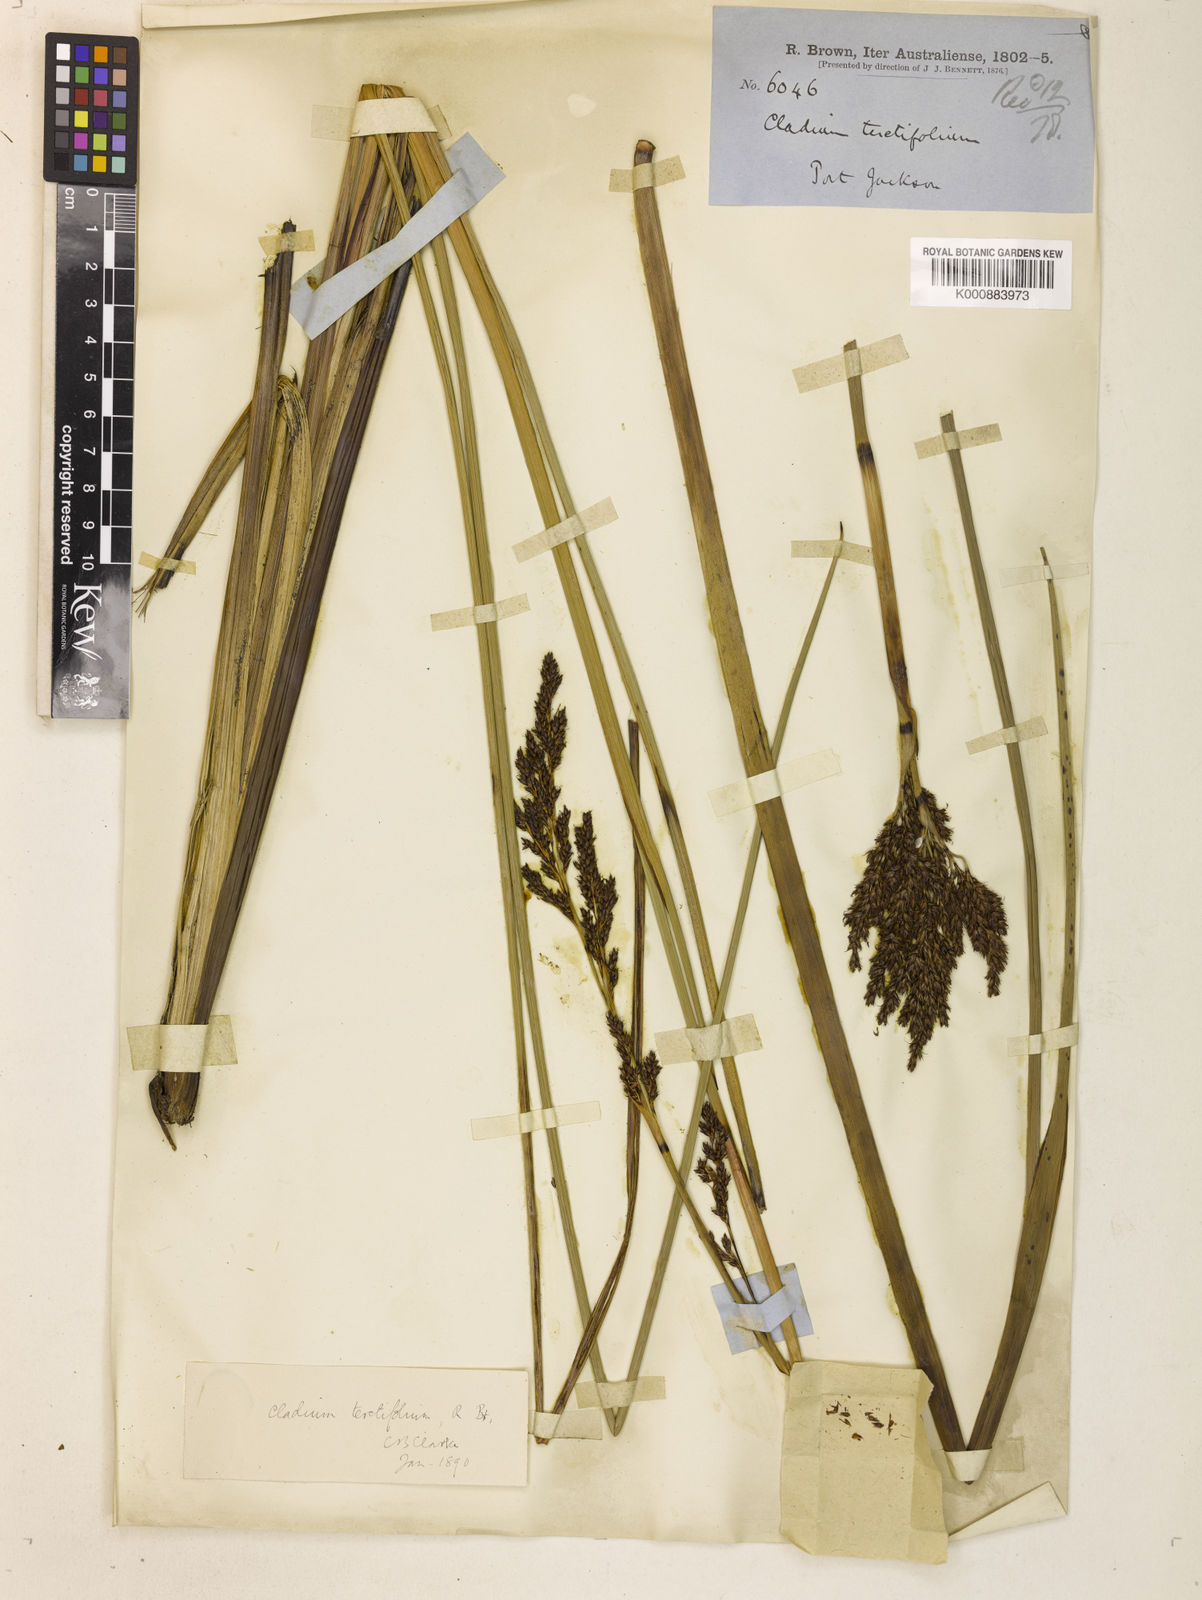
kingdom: Plantae
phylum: Tracheophyta
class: Liliopsida
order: Poales
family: Cyperaceae
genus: Machaerina
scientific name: Machaerina teretifolia
